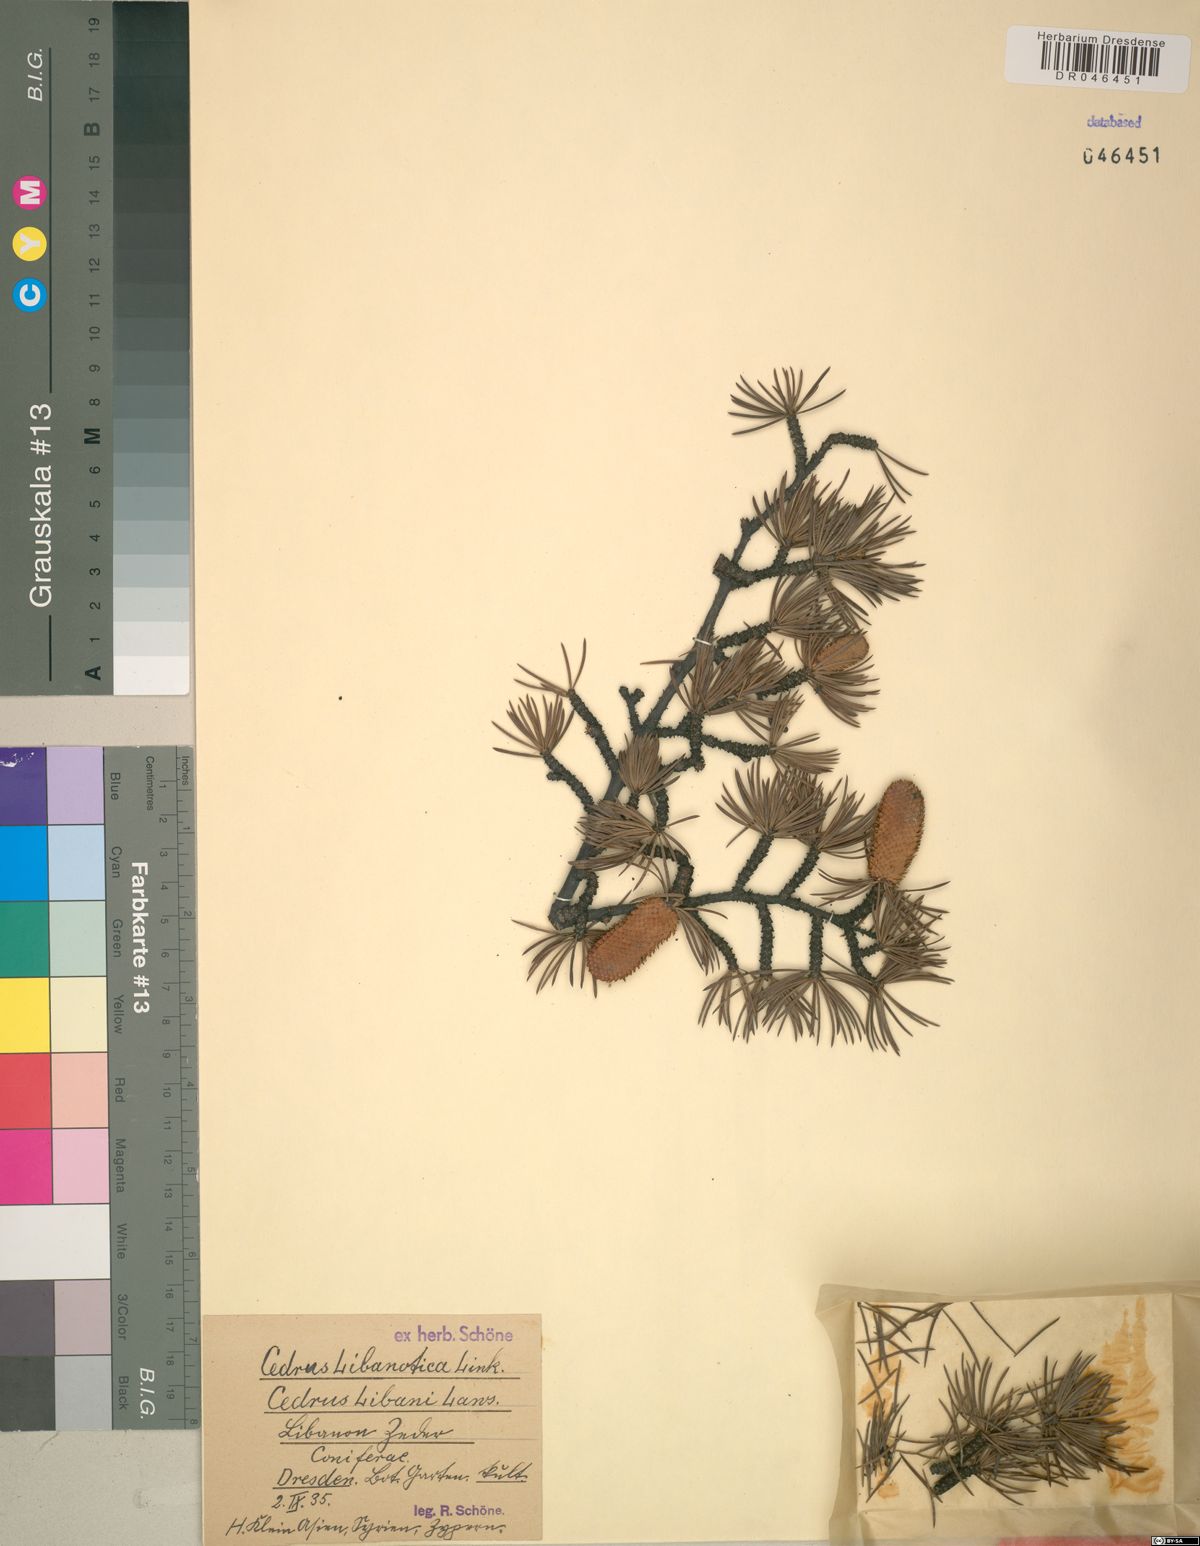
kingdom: Plantae
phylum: Tracheophyta
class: Pinopsida
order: Pinales
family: Pinaceae
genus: Cedrus
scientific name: Cedrus libani
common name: Cedar-of-lebanon
